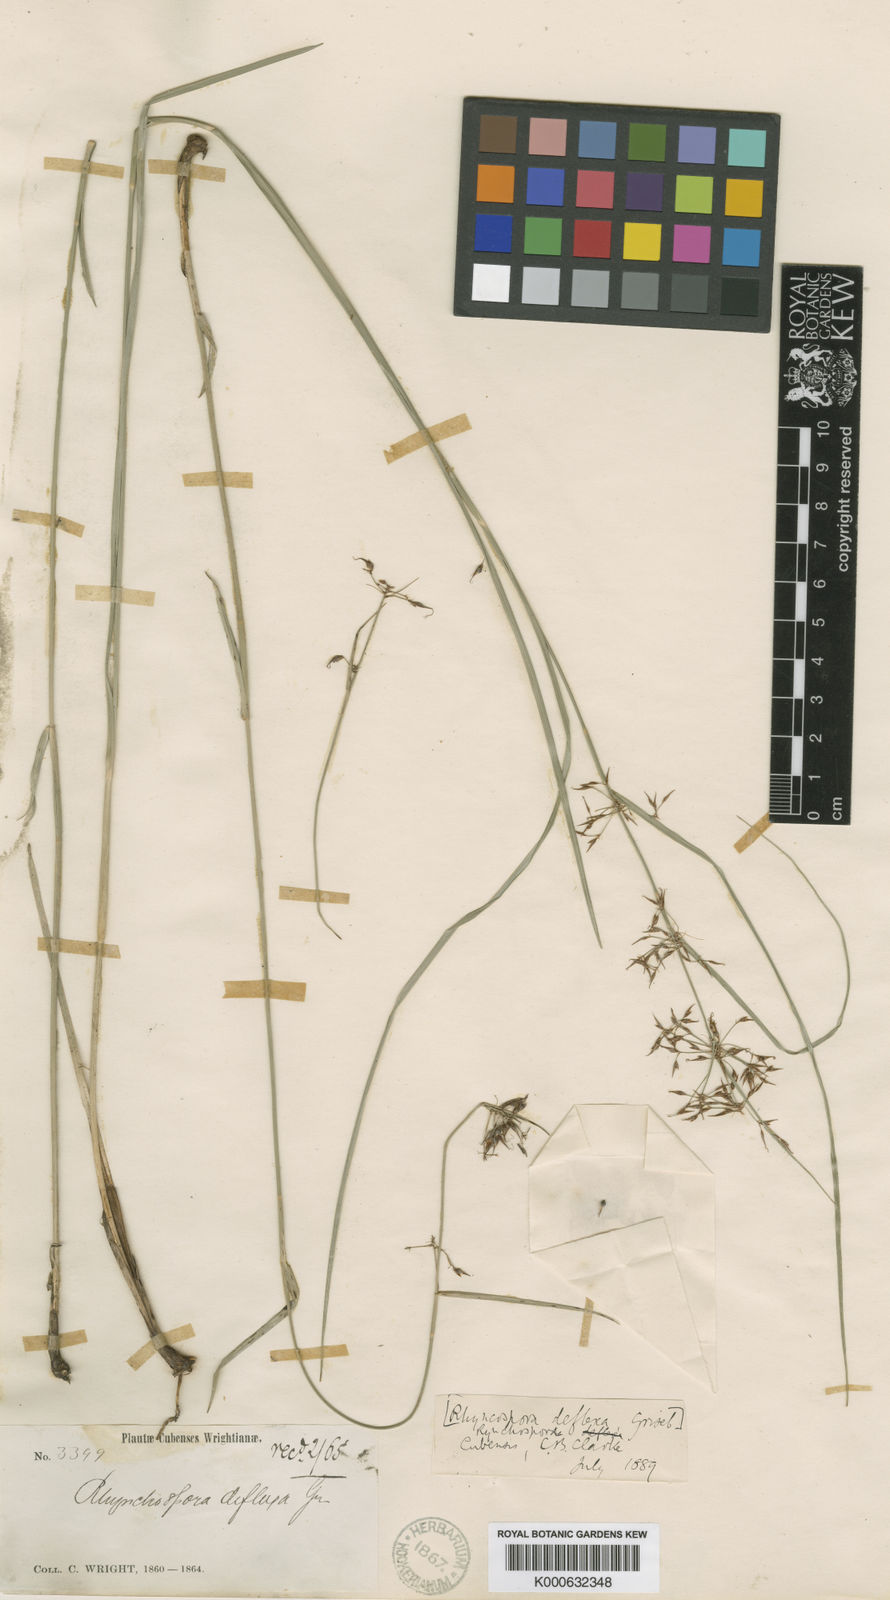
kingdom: Plantae
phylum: Tracheophyta
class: Liliopsida
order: Poales
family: Cyperaceae
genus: Rhynchospora
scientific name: Rhynchospora miliacea
